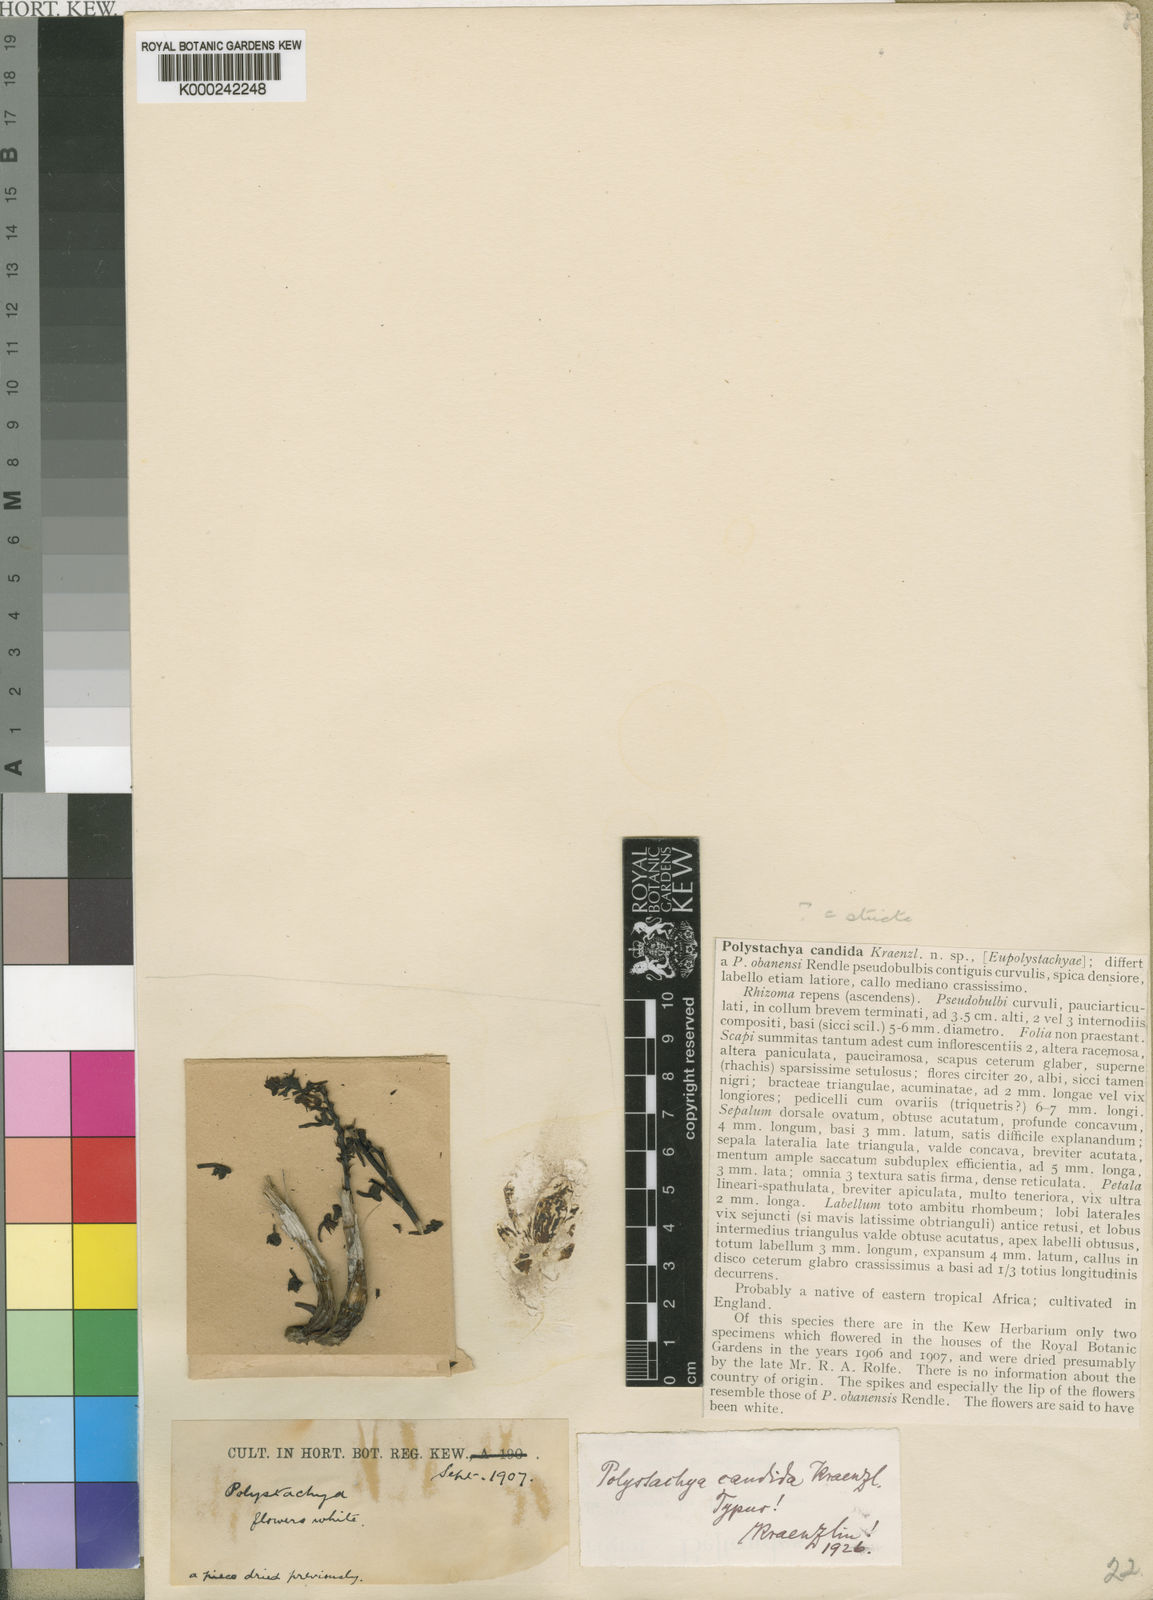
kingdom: Plantae
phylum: Tracheophyta
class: Liliopsida
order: Asparagales
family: Orchidaceae
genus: Polystachya
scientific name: Polystachya candida
